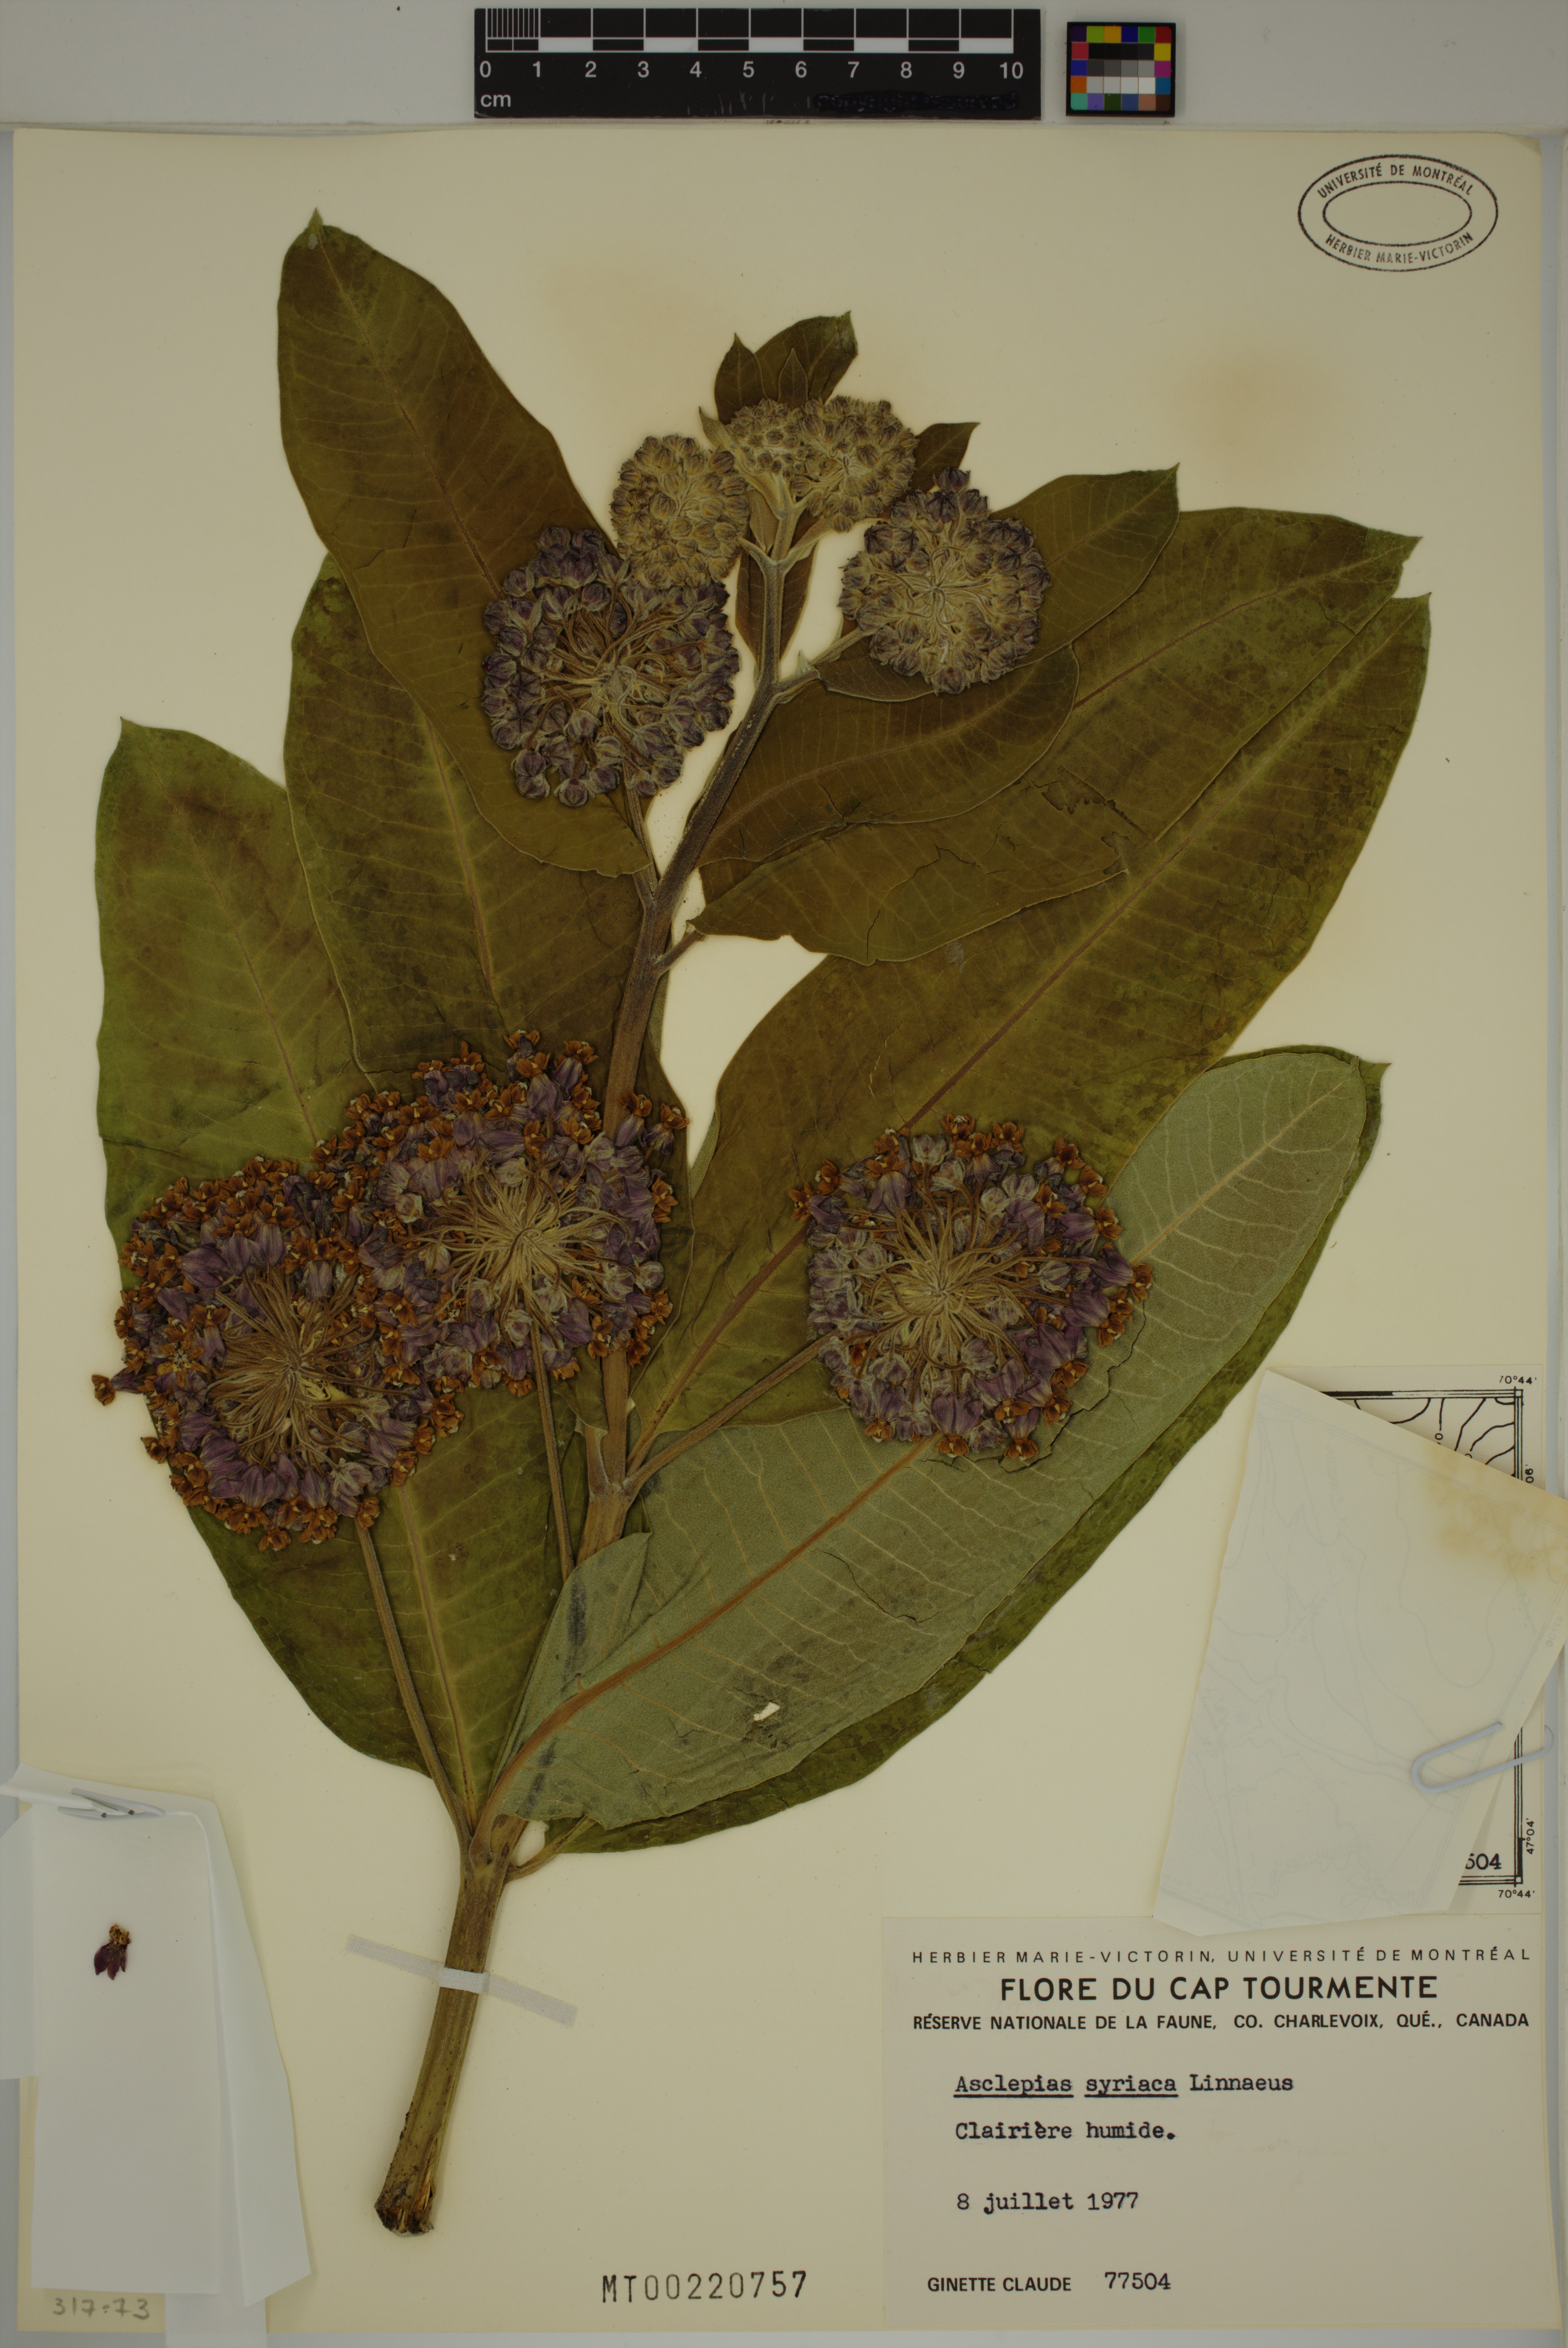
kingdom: Plantae
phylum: Tracheophyta
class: Magnoliopsida
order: Gentianales
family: Apocynaceae
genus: Asclepias
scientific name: Asclepias syriaca
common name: Common milkweed
